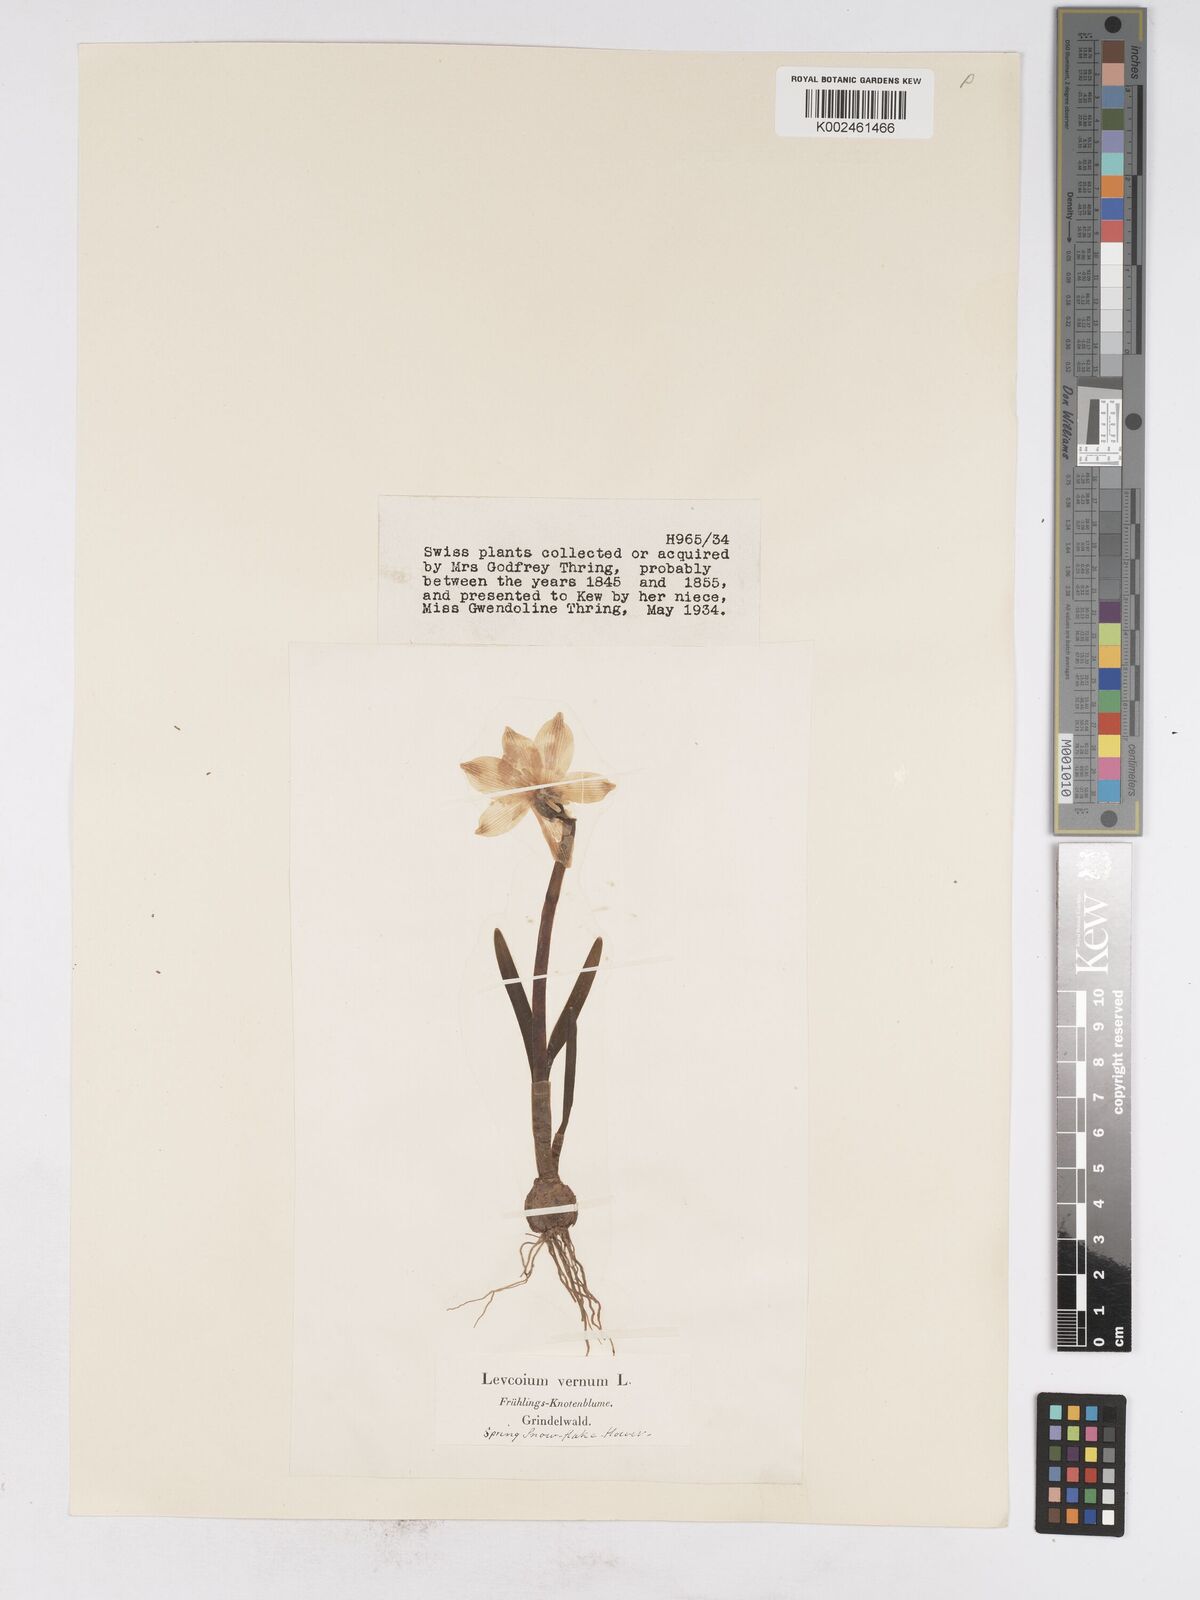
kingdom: Plantae
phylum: Tracheophyta
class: Liliopsida
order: Asparagales
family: Amaryllidaceae
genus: Leucojum
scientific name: Leucojum vernum
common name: Spring snowflake
